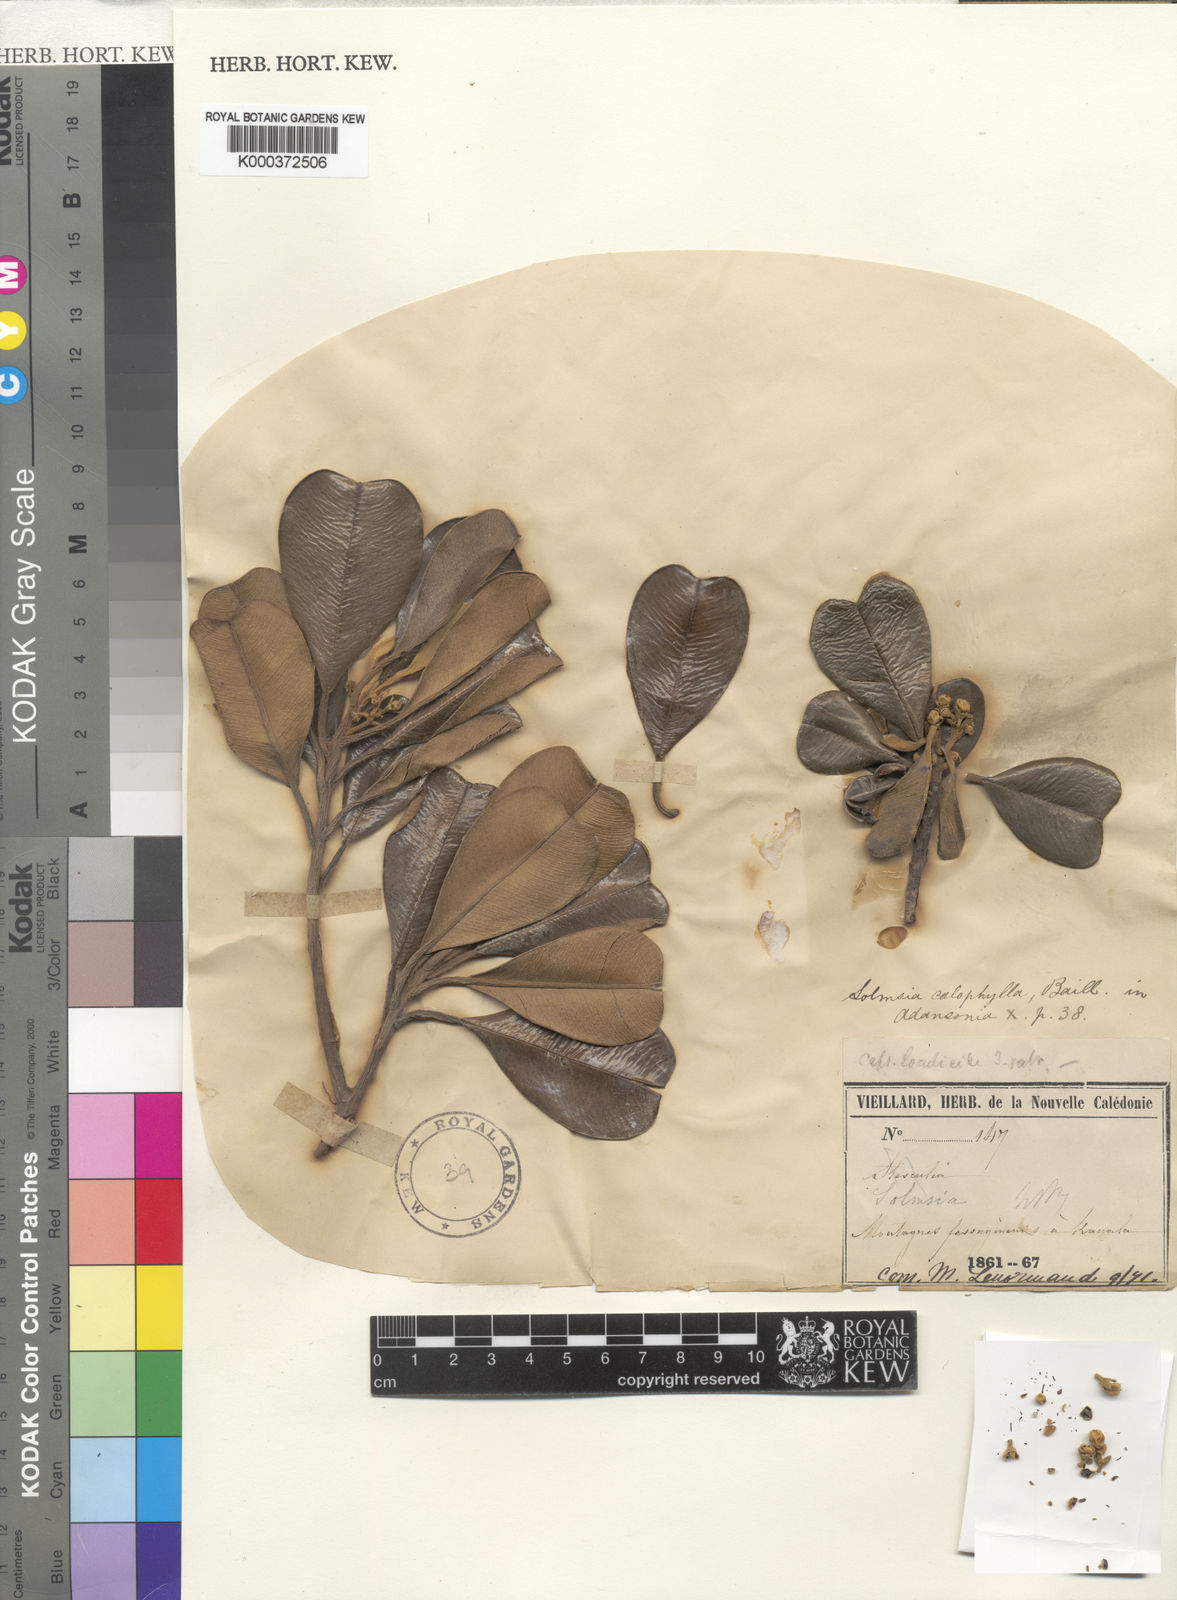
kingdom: Plantae
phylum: Tracheophyta
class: Magnoliopsida
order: Malvales
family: Thymelaeaceae
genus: Solmsia
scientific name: Solmsia calophylla
